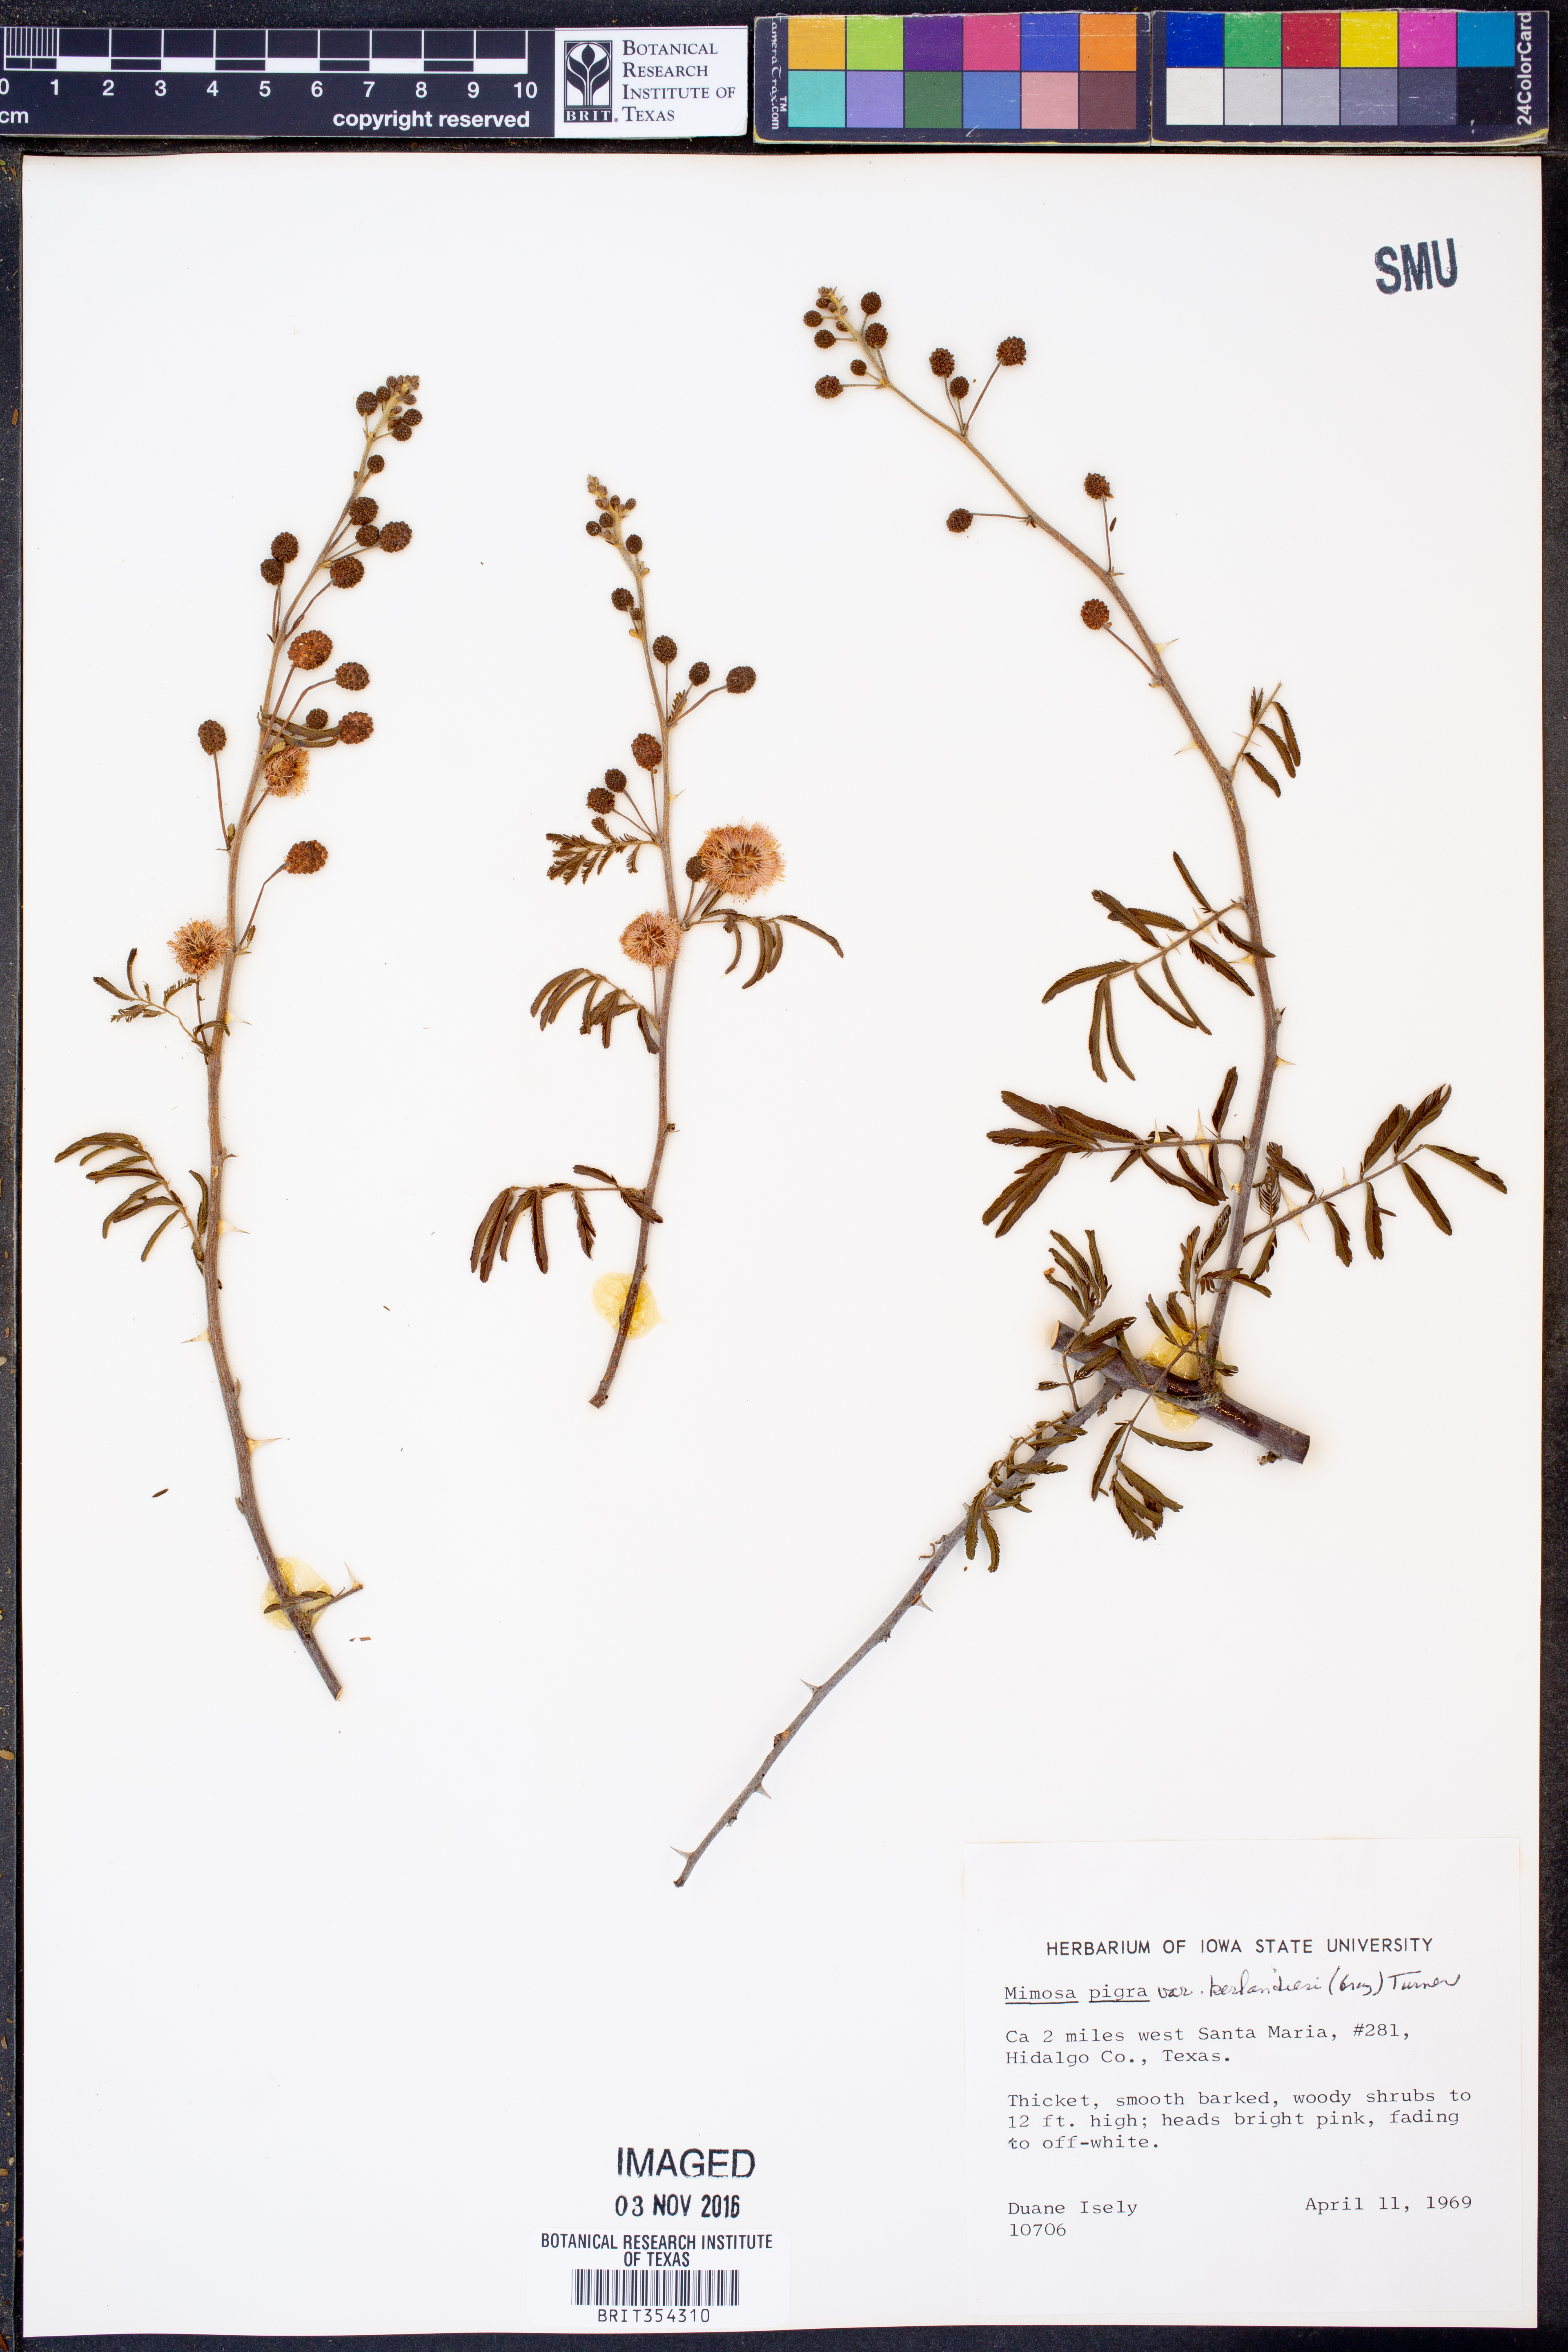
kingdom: Plantae
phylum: Tracheophyta
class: Magnoliopsida
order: Fabales
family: Fabaceae
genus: Mimosa
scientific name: Mimosa pigra
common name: Black mimosa
